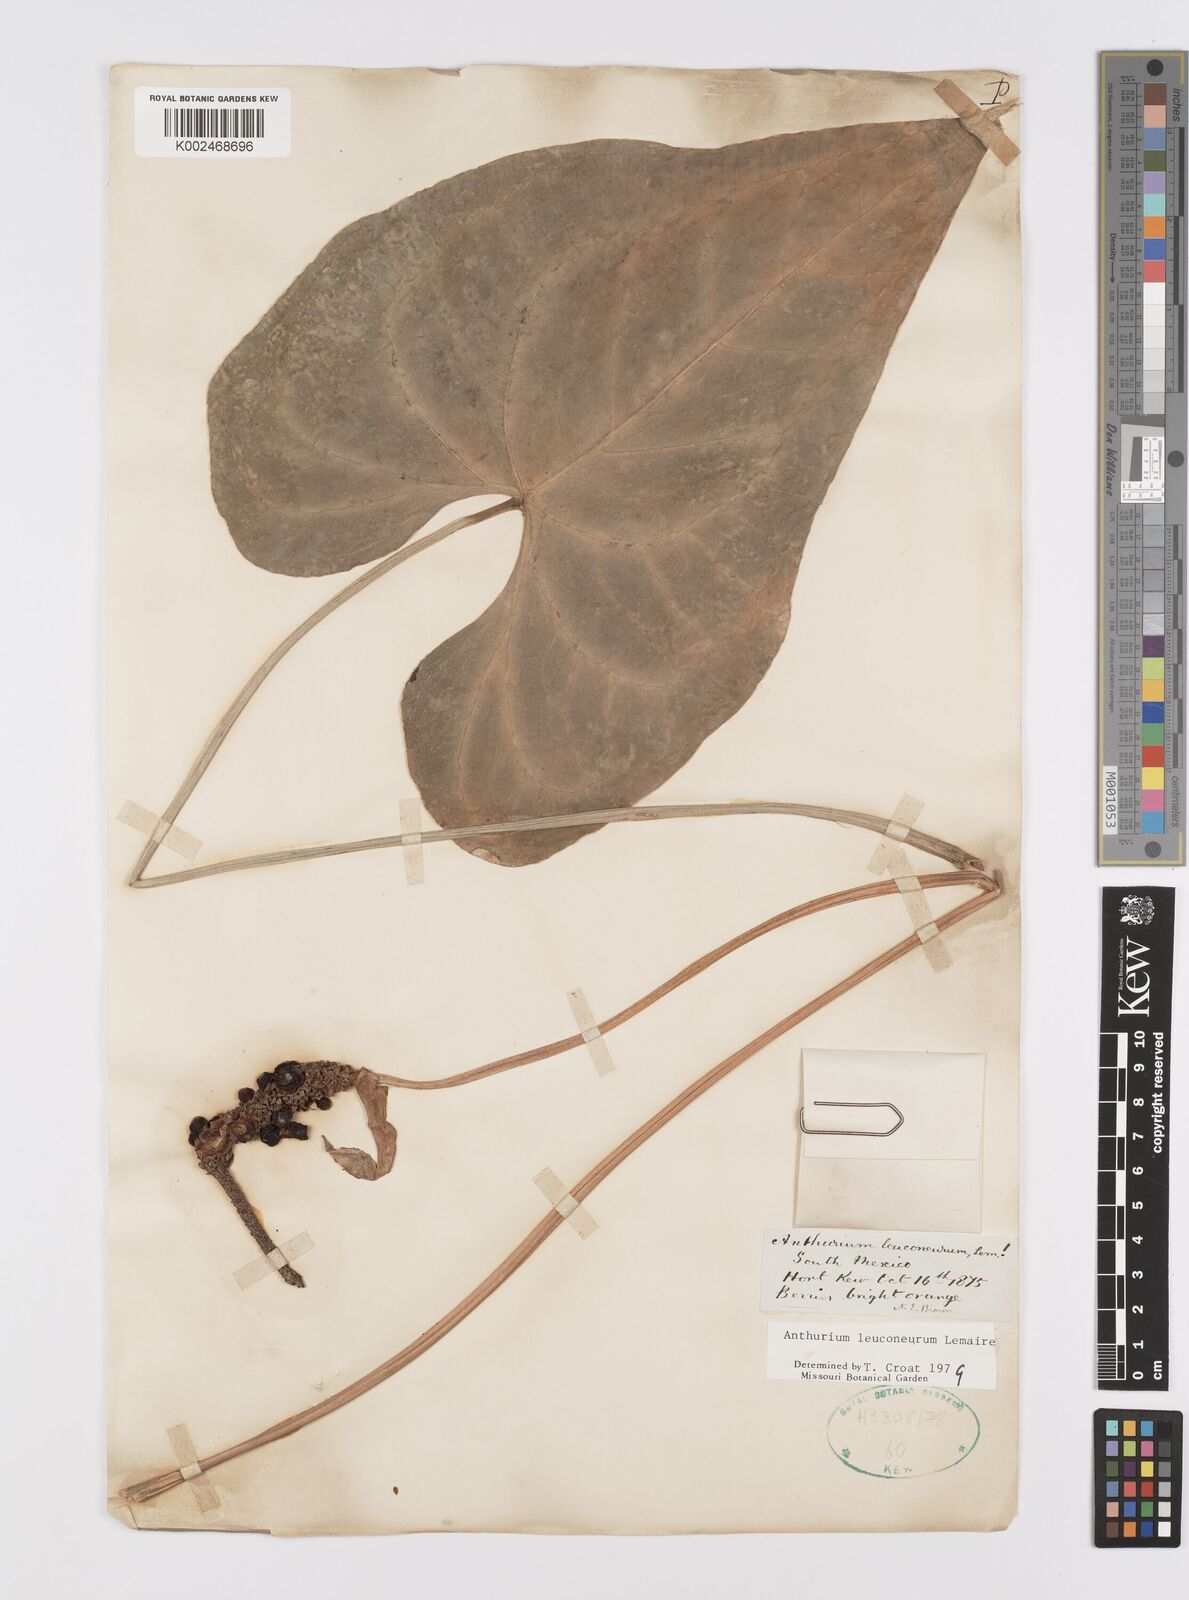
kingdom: Plantae
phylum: Tracheophyta
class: Liliopsida
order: Alismatales
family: Araceae
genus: Anthurium
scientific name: Anthurium leuconeurum
